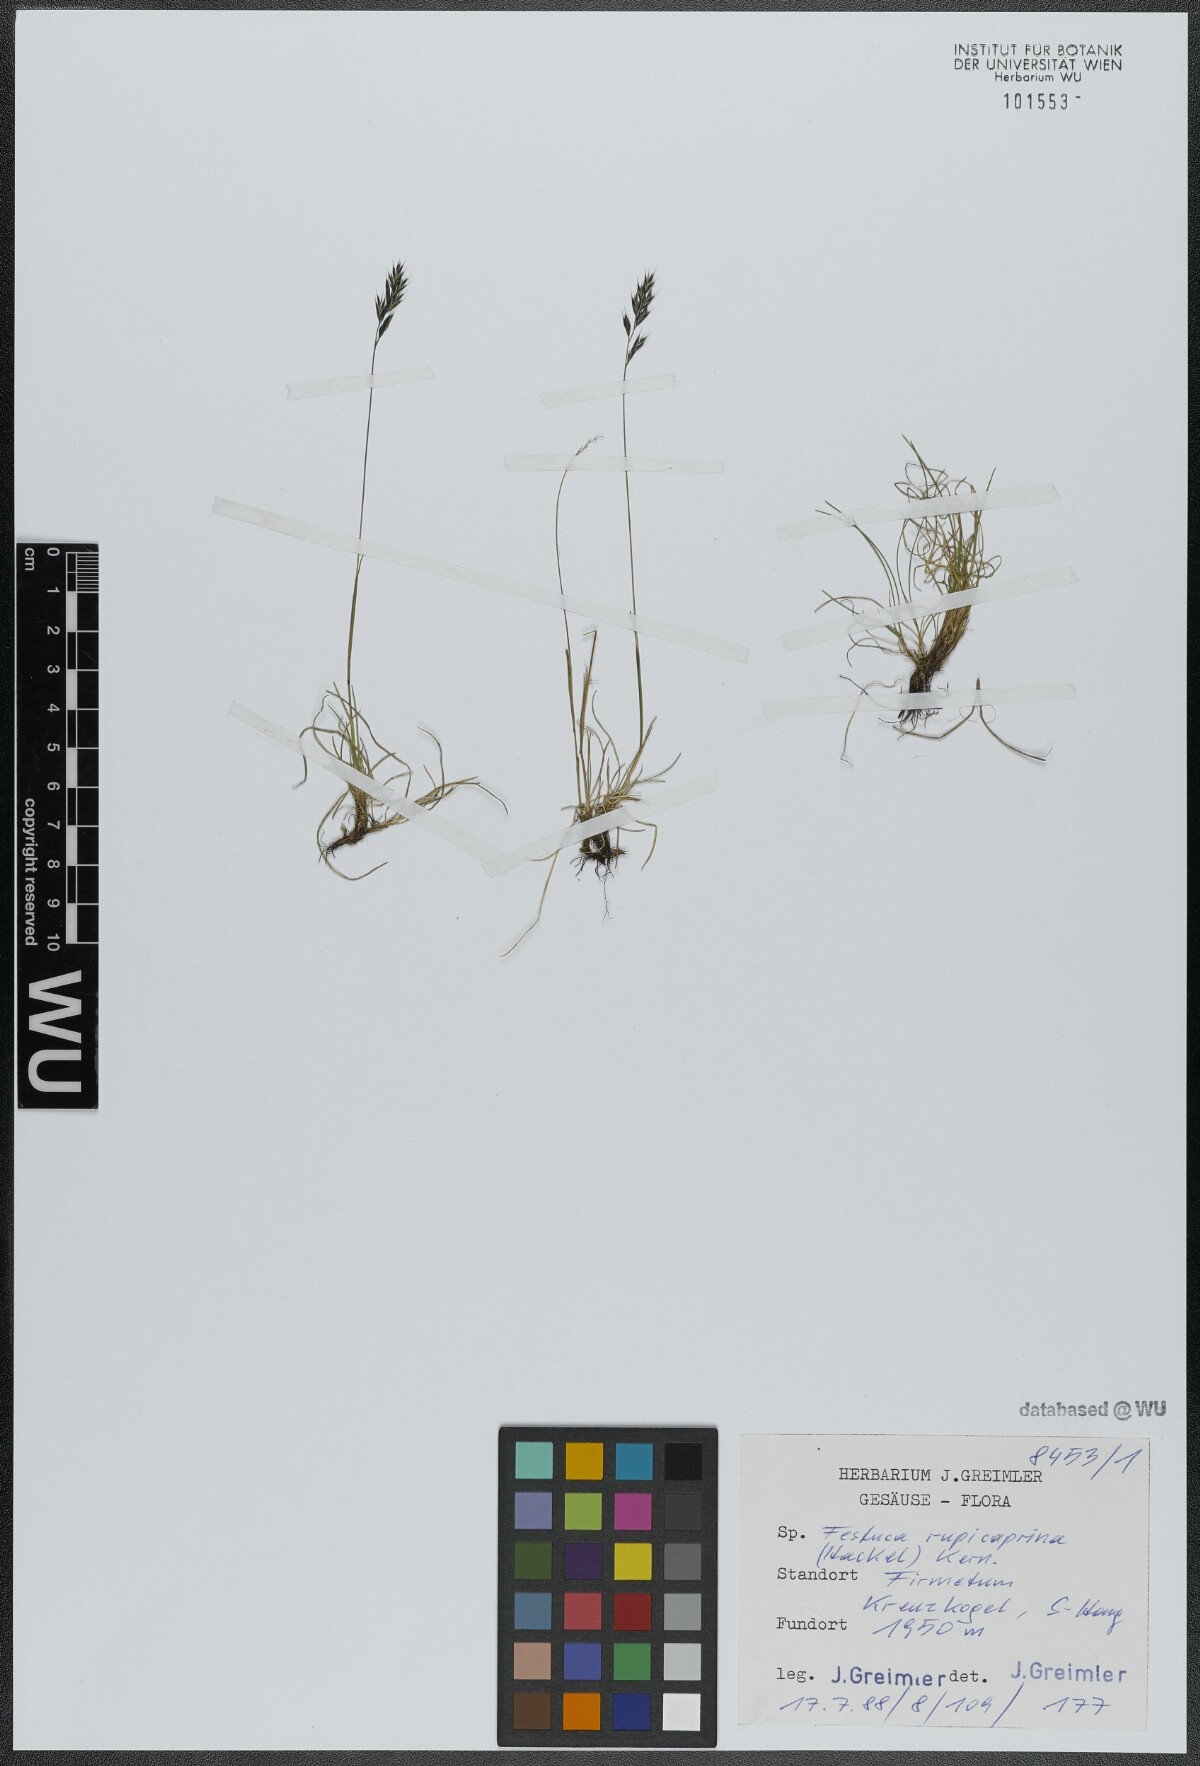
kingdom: Plantae
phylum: Tracheophyta
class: Liliopsida
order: Poales
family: Poaceae
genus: Festuca
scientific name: Festuca rupicaprina
